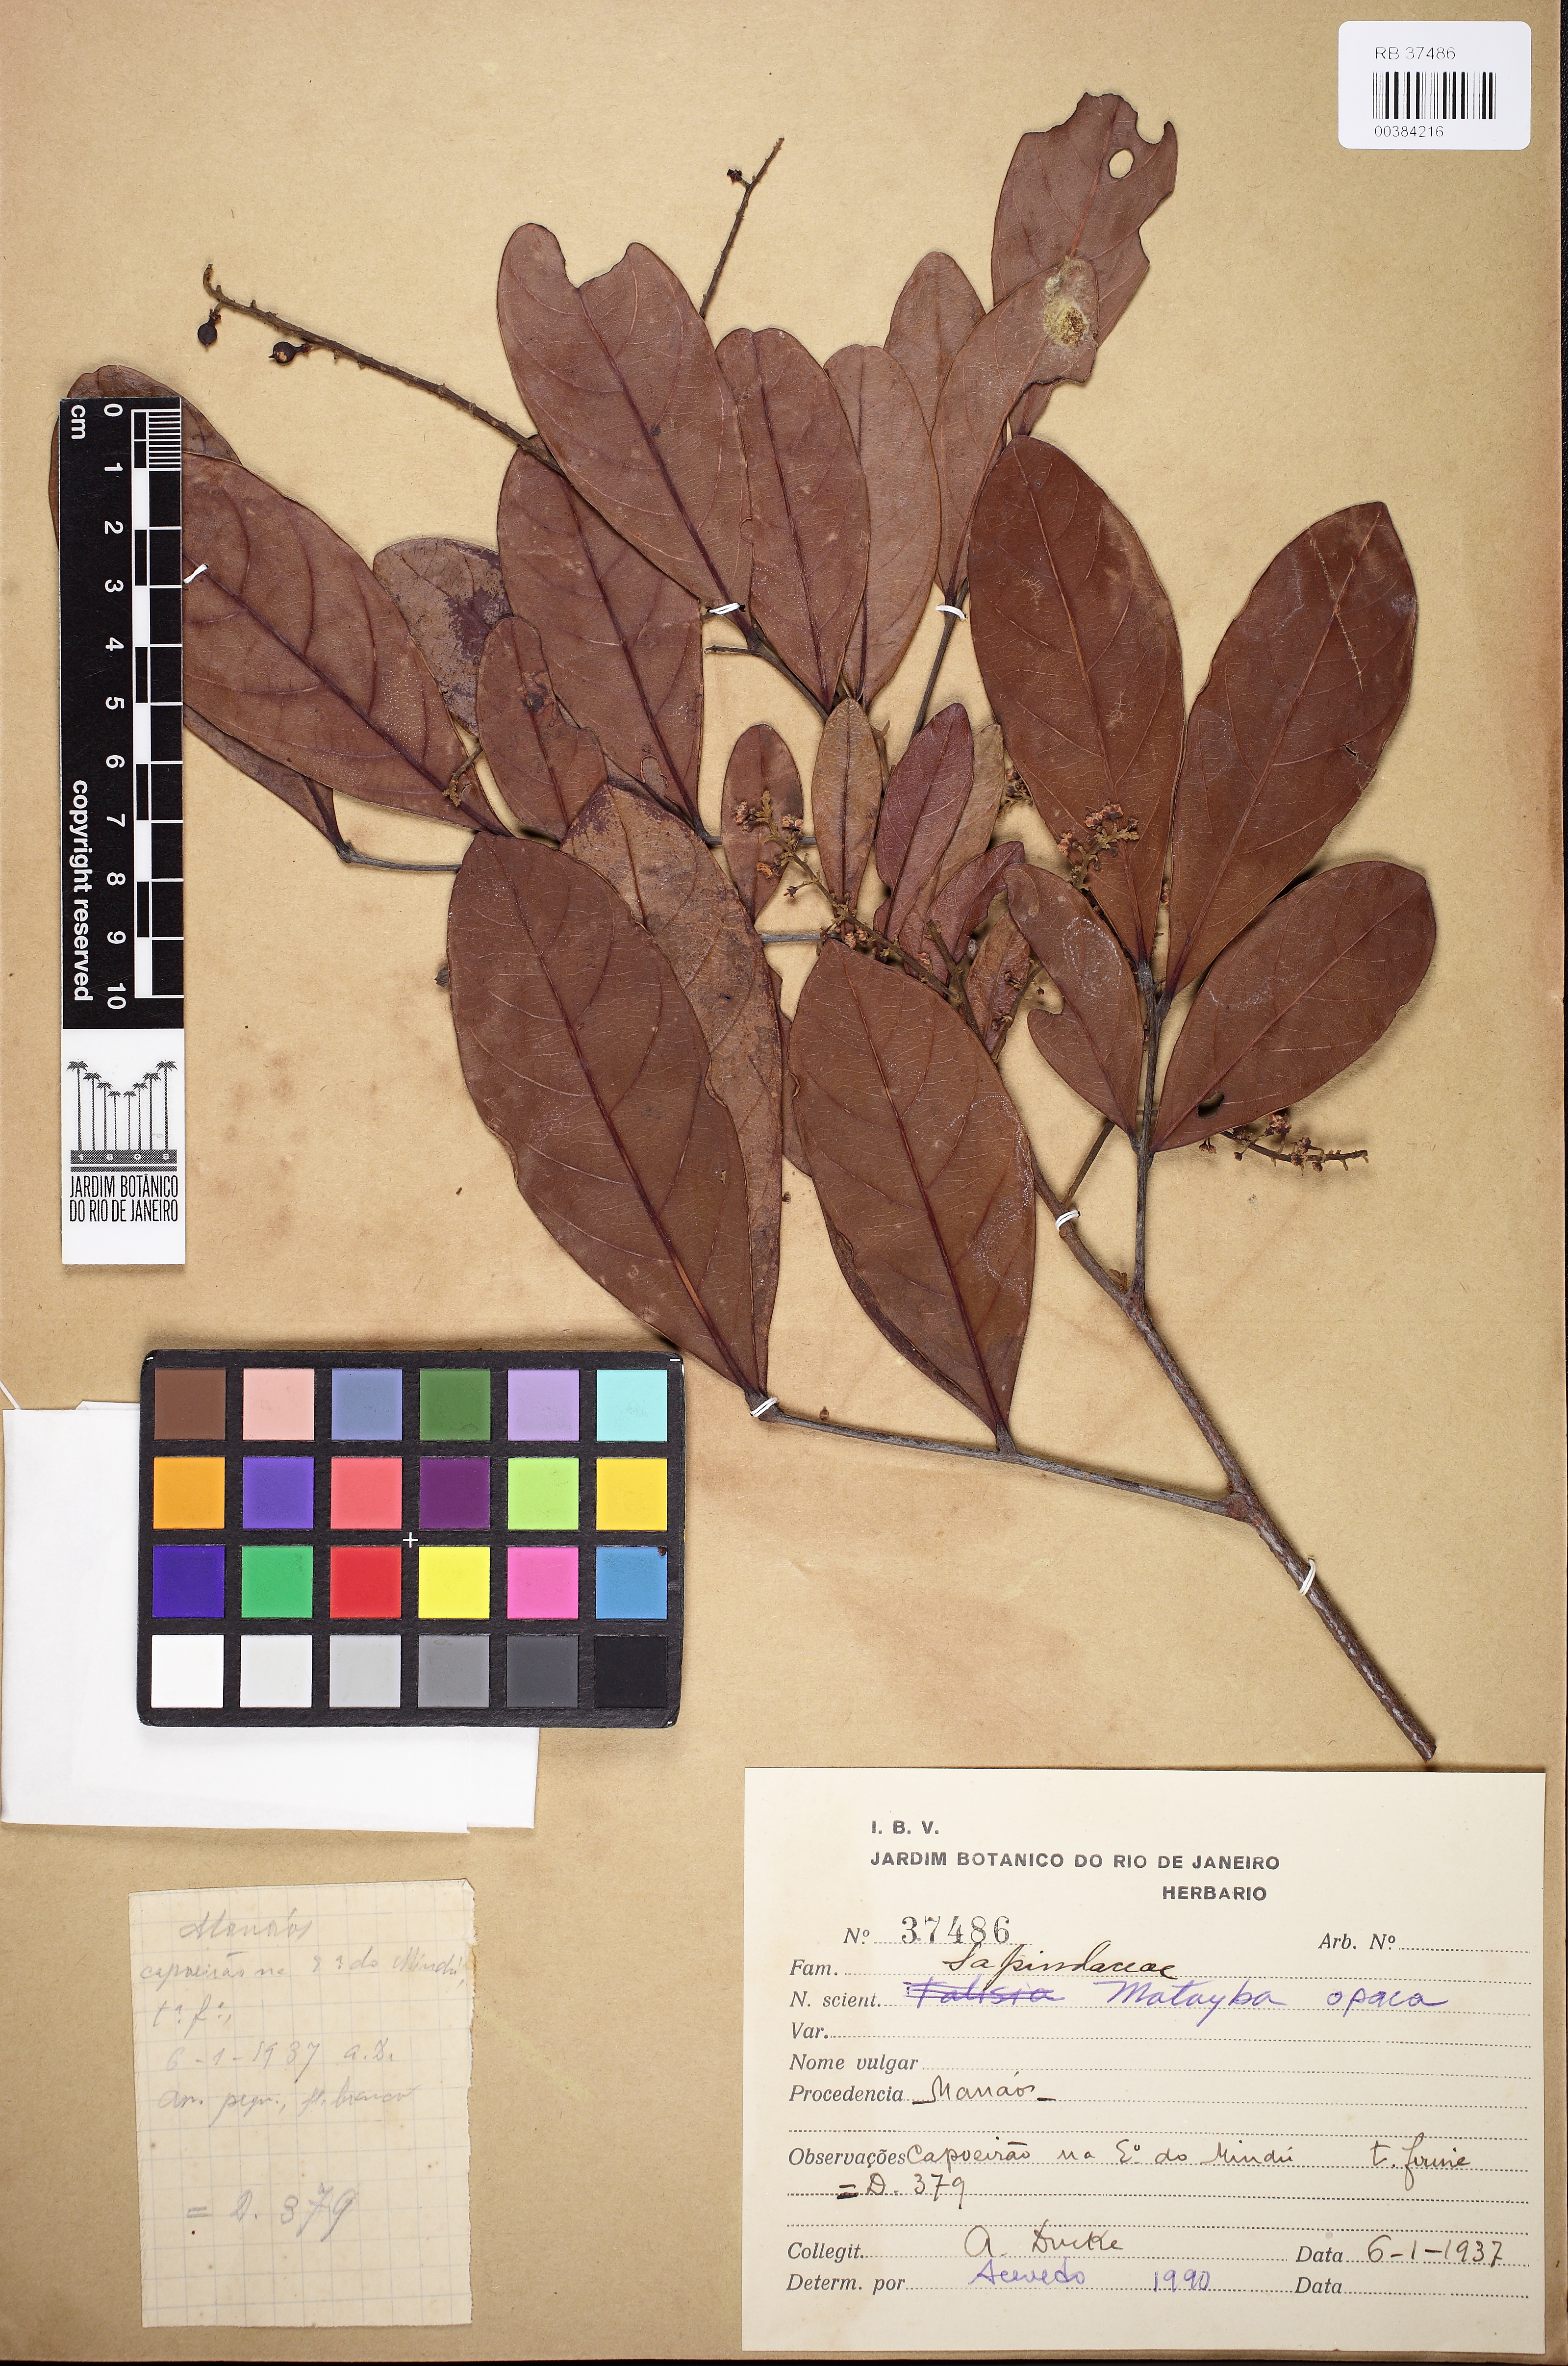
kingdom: Plantae
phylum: Tracheophyta
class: Magnoliopsida
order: Sapindales
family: Sapindaceae
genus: Matayba
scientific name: Matayba opaca
